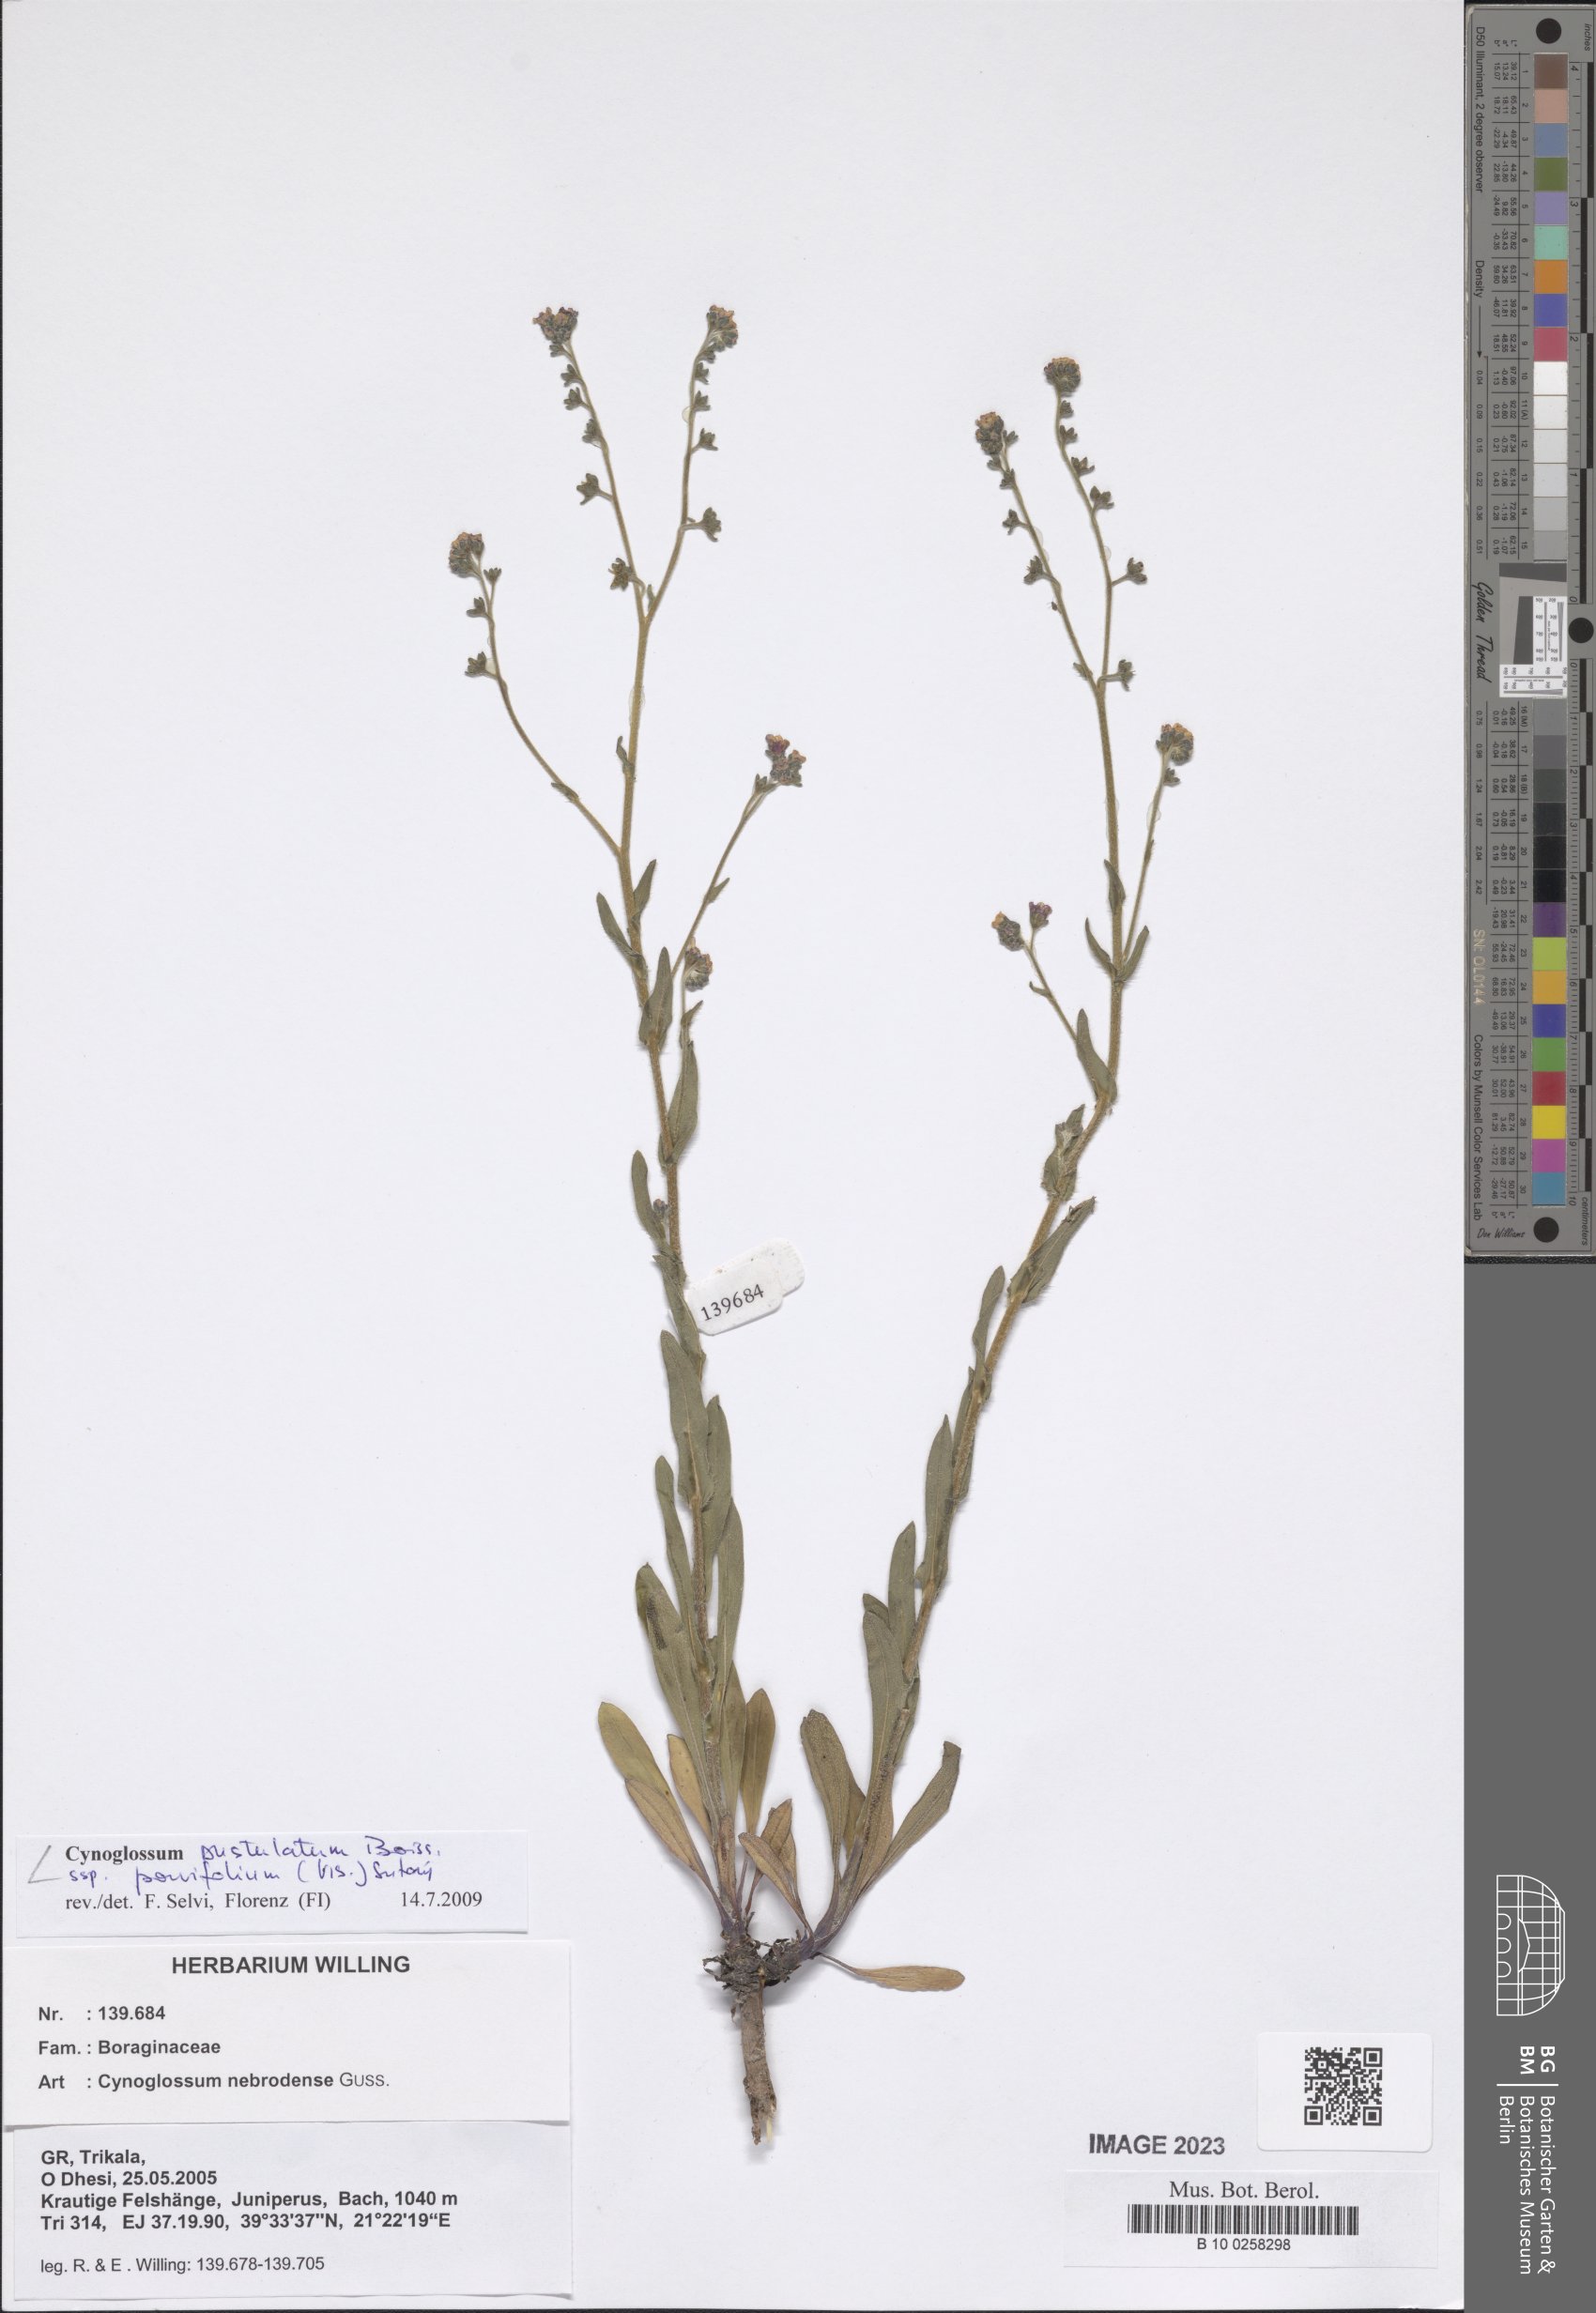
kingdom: Plantae
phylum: Tracheophyta
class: Magnoliopsida
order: Boraginales
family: Boraginaceae
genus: Cynoglossum
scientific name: Cynoglossum pustulatum
